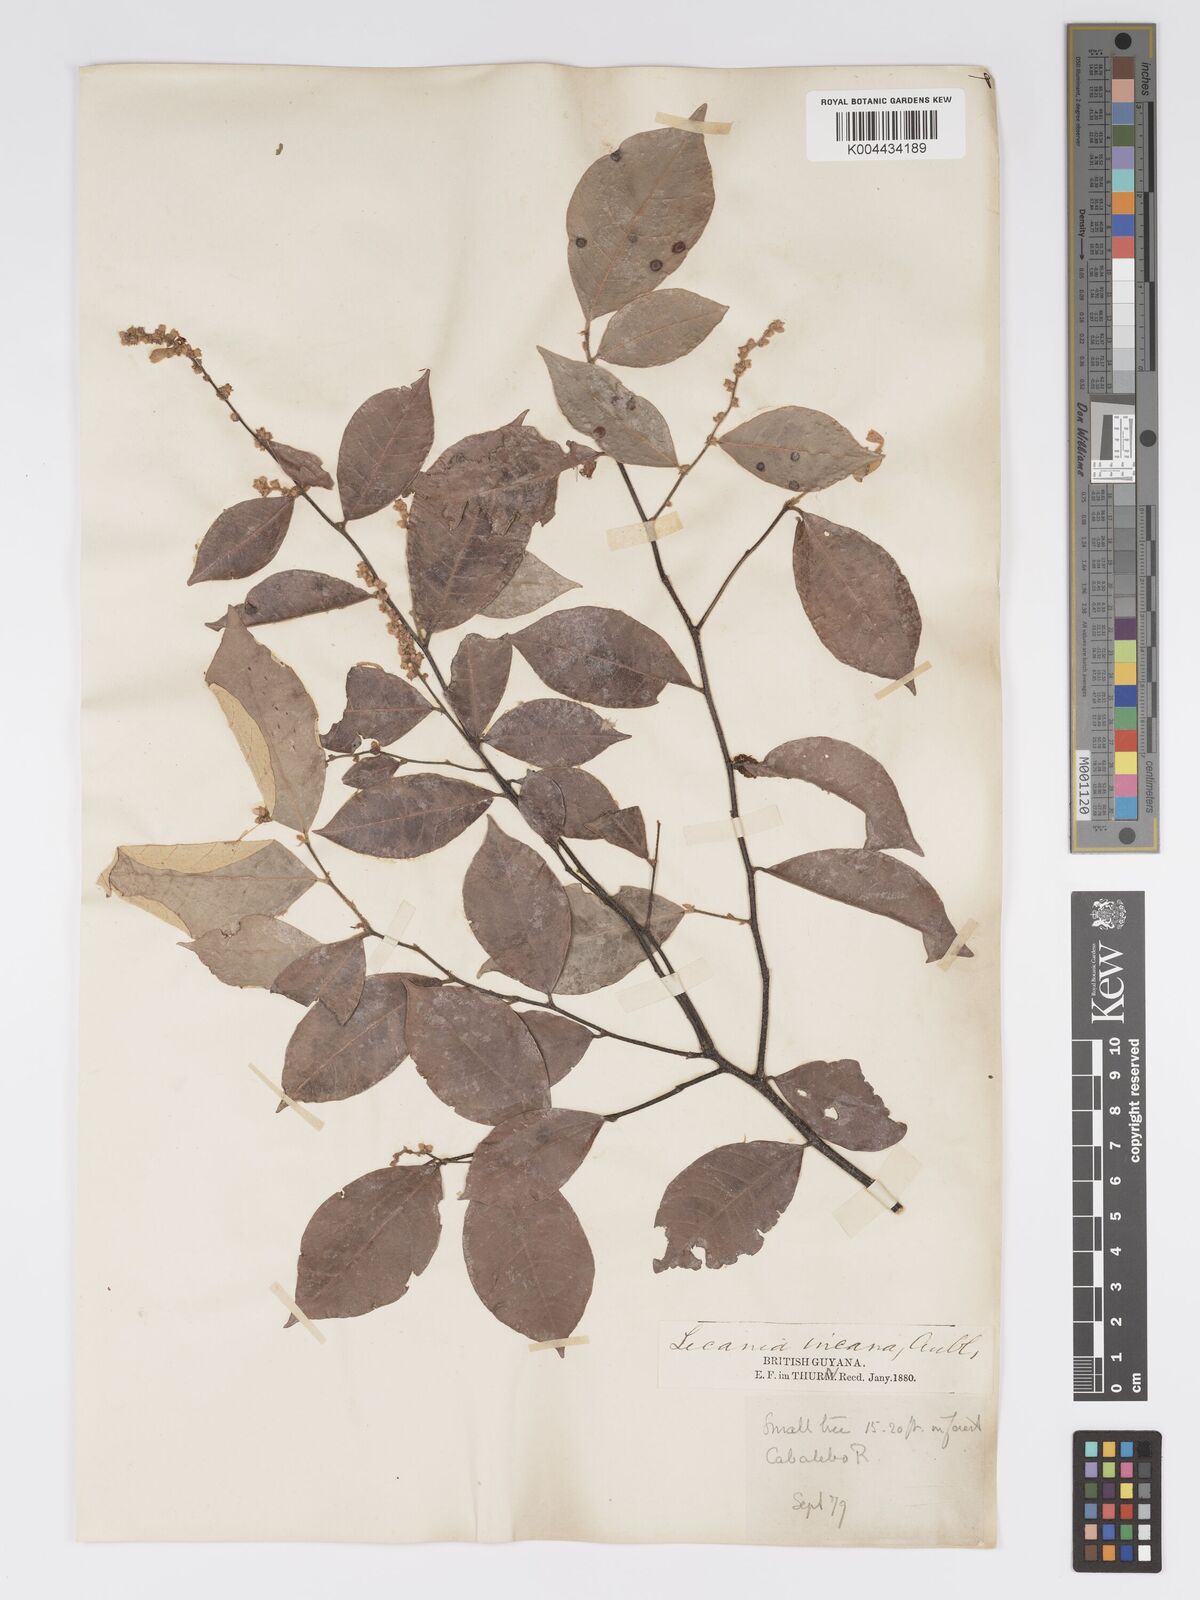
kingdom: Plantae
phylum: Tracheophyta
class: Magnoliopsida
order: Malpighiales
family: Chrysobalanaceae
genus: Licania
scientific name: Licania leptostachya
